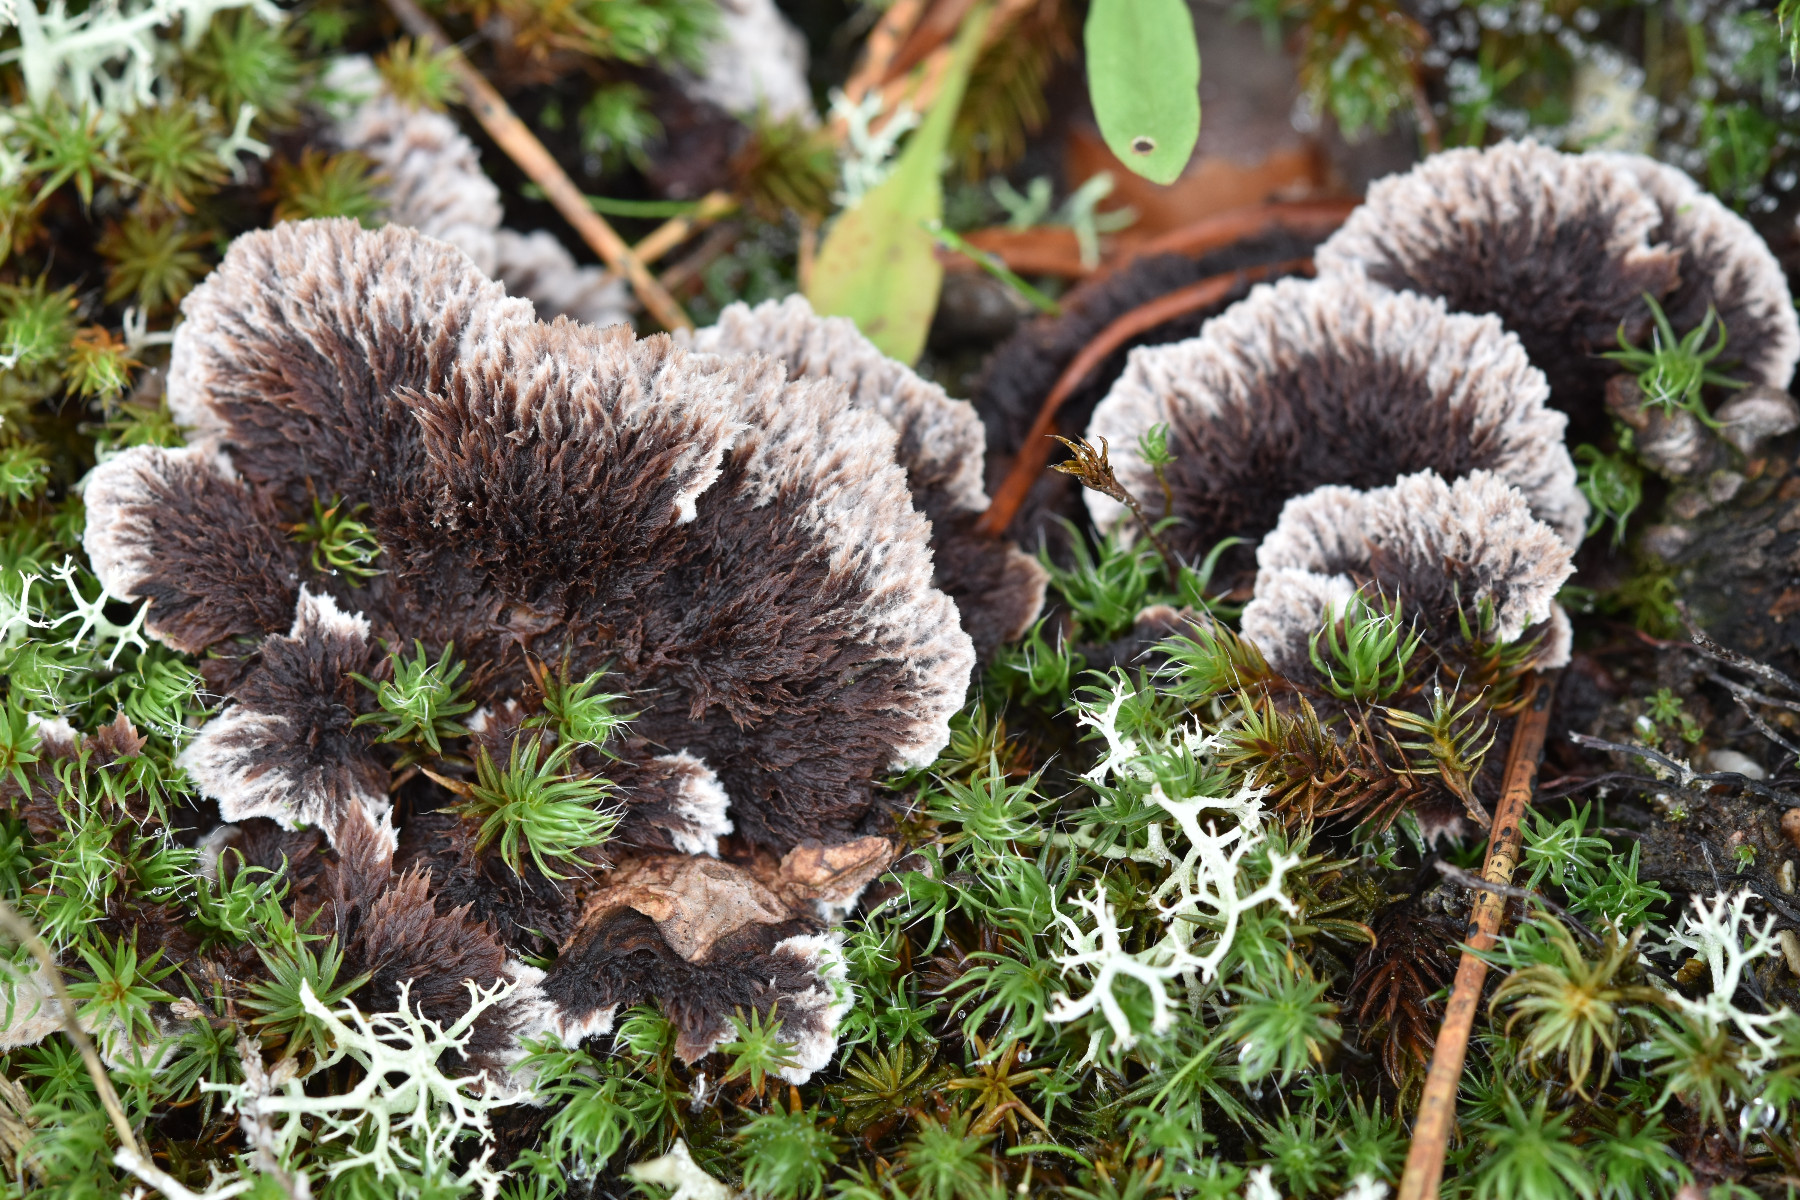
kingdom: Fungi
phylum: Basidiomycota
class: Agaricomycetes
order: Thelephorales
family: Thelephoraceae
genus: Thelephora
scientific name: Thelephora terrestris
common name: fliget frynsesvamp
